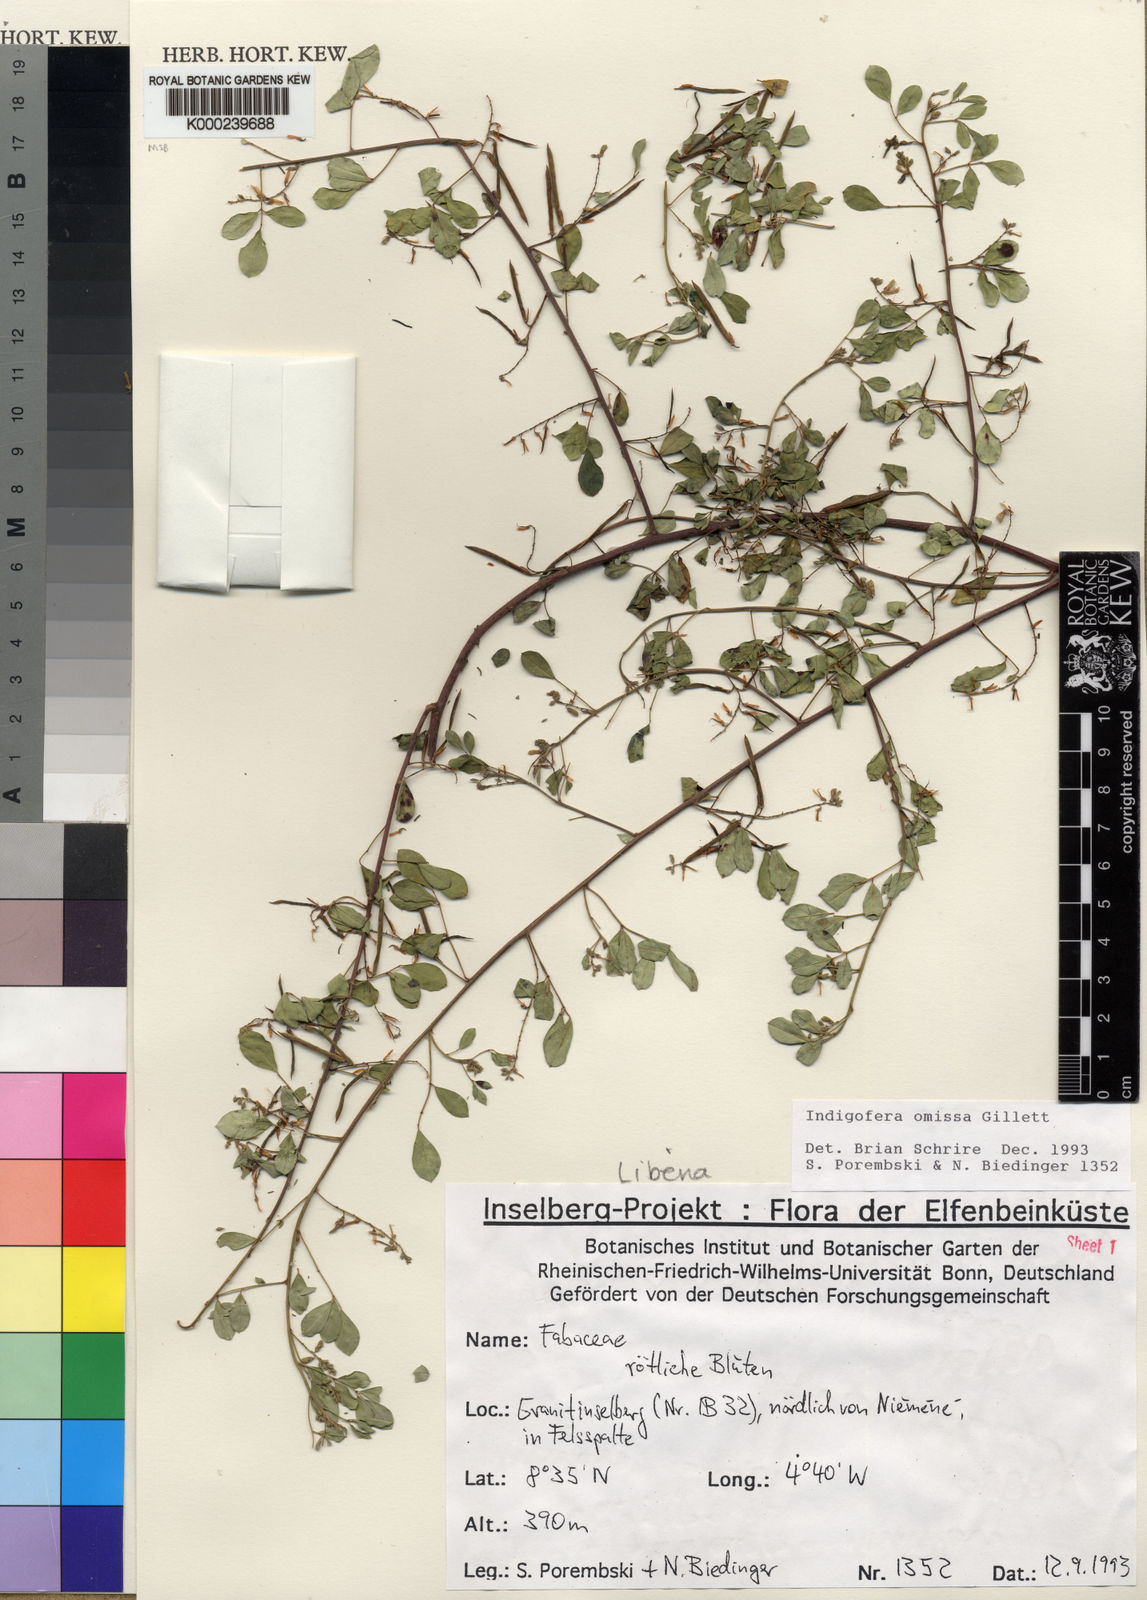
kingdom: Plantae
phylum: Tracheophyta
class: Magnoliopsida
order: Fabales
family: Fabaceae
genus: Indigofera
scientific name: Indigofera omissa
